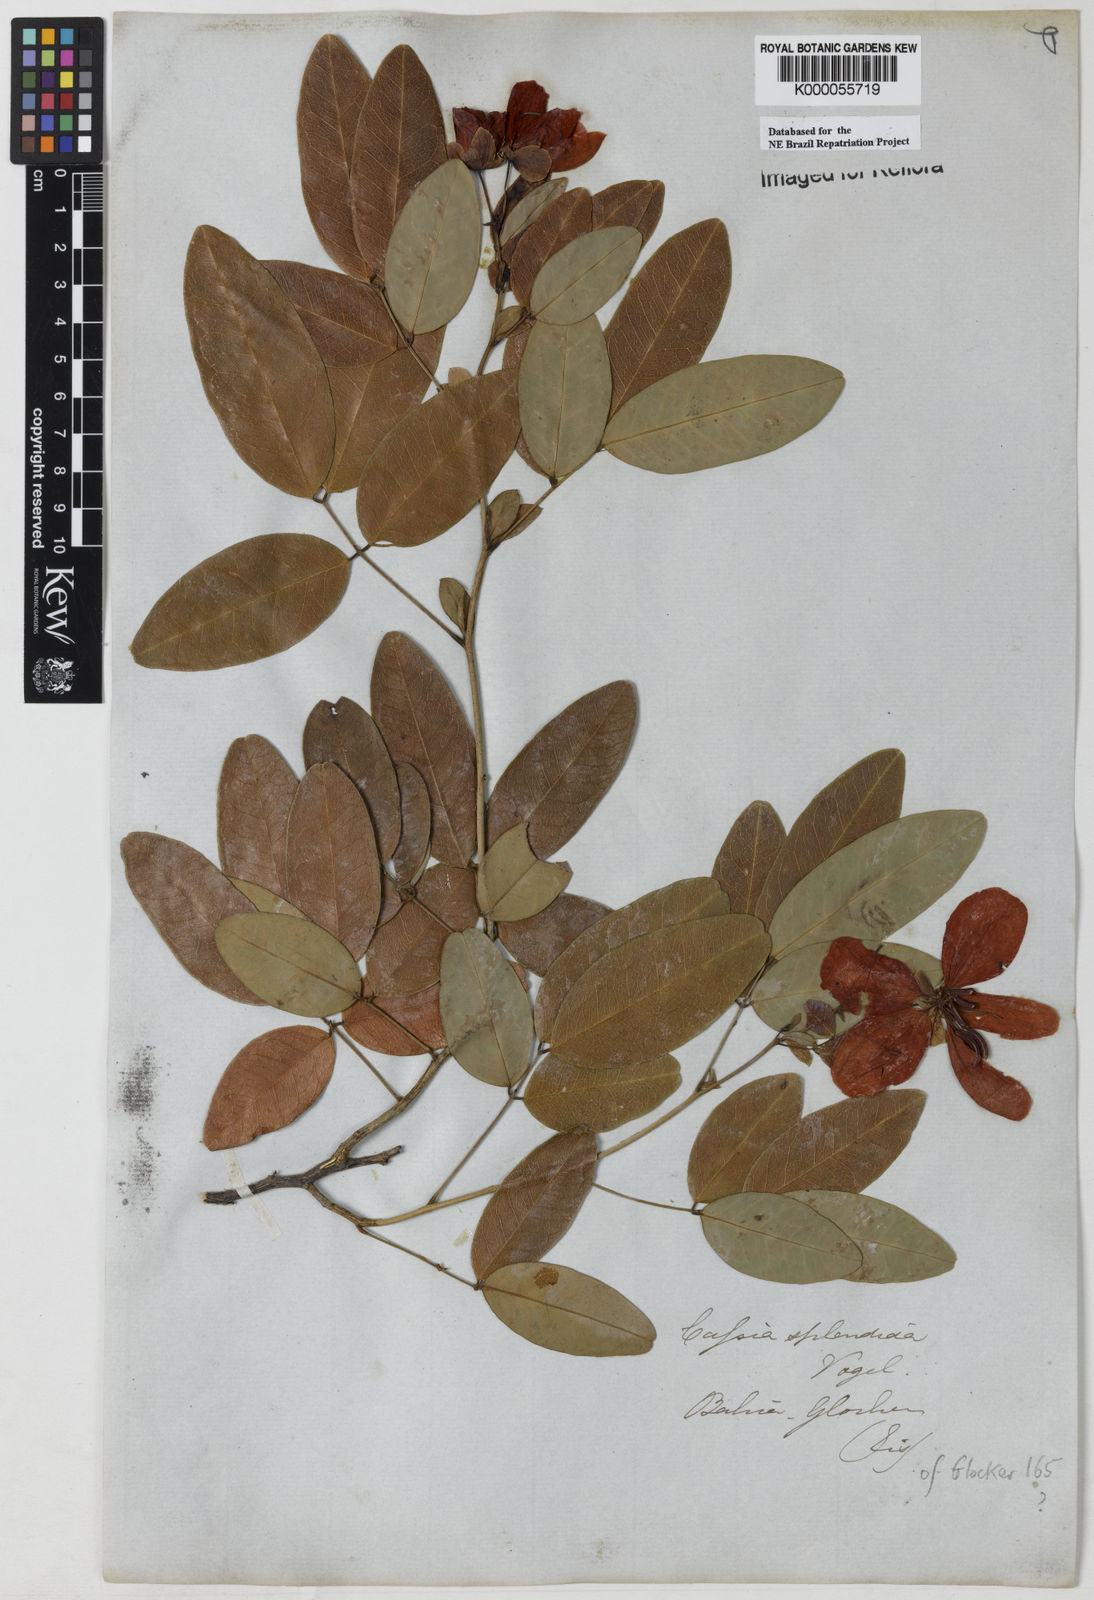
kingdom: Plantae
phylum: Tracheophyta
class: Magnoliopsida
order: Fabales
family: Fabaceae
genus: Senna
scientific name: Senna splendida
